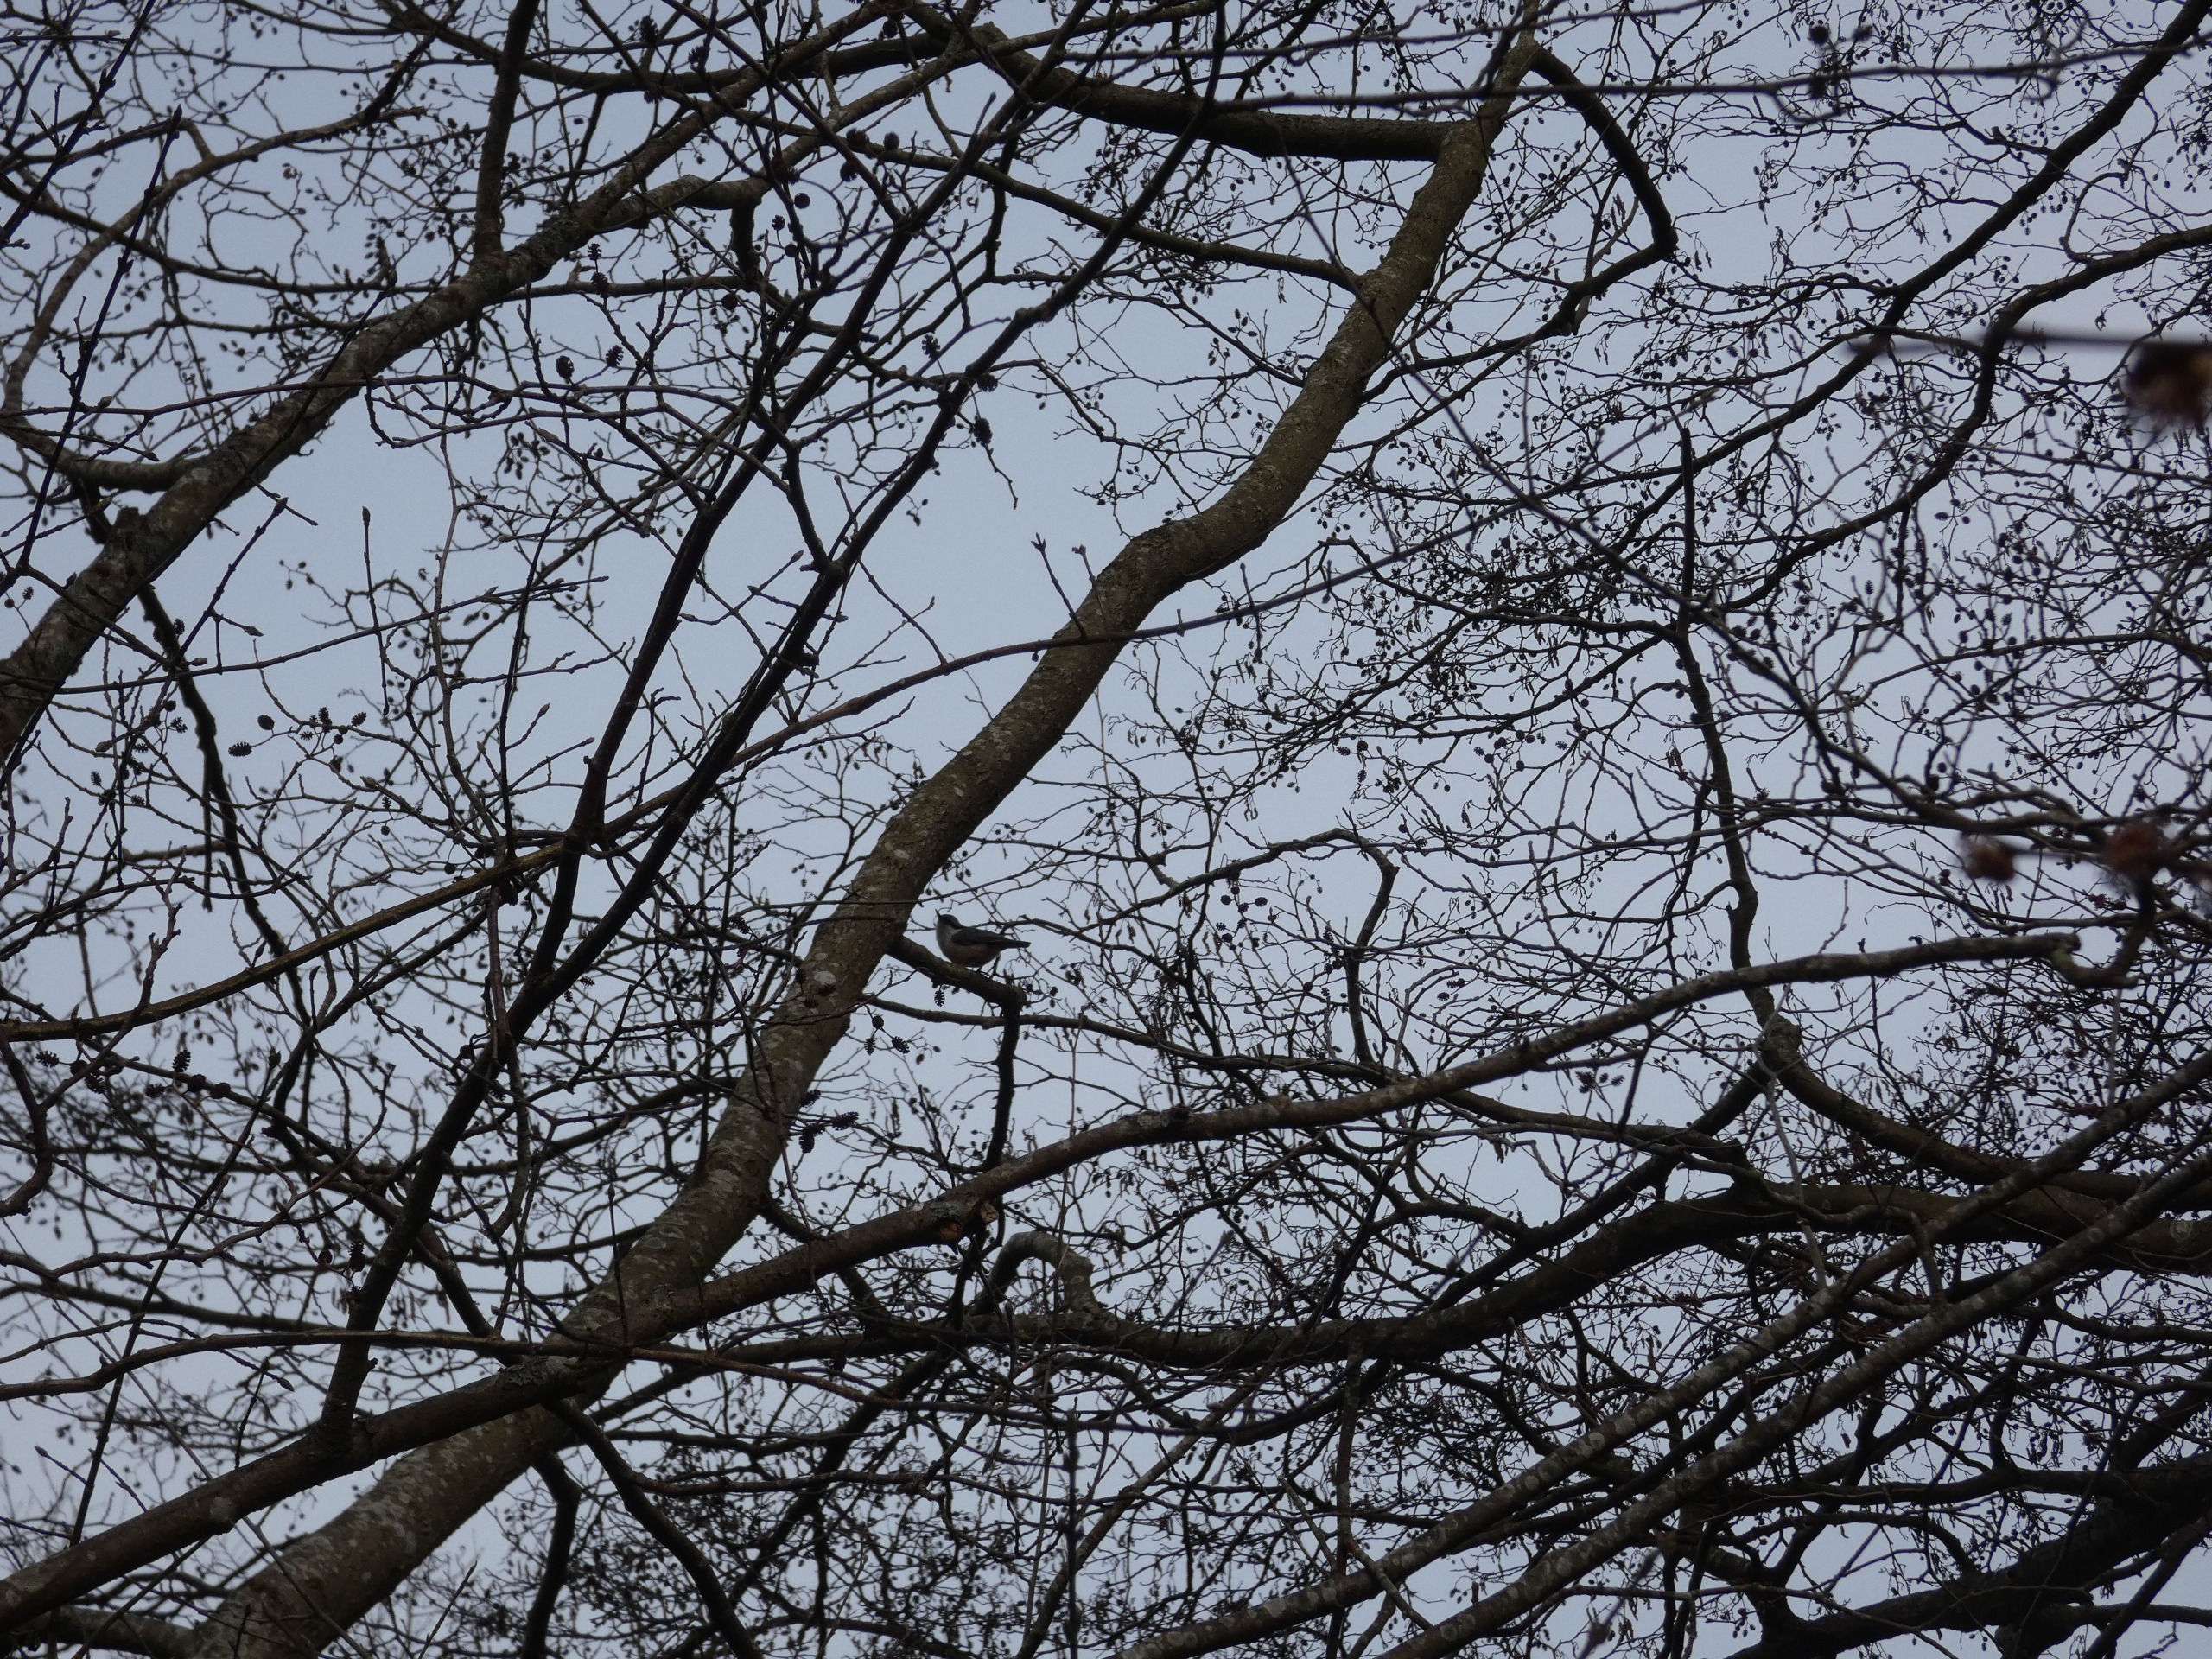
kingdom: Animalia
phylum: Chordata
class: Aves
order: Passeriformes
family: Sittidae
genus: Sitta
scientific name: Sitta europaea
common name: Spætmejse
